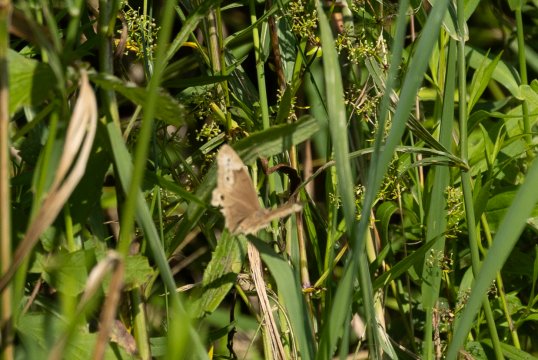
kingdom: Animalia
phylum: Arthropoda
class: Insecta
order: Lepidoptera
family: Nymphalidae
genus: Lethe
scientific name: Lethe eurydice
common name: Eyed Brown
